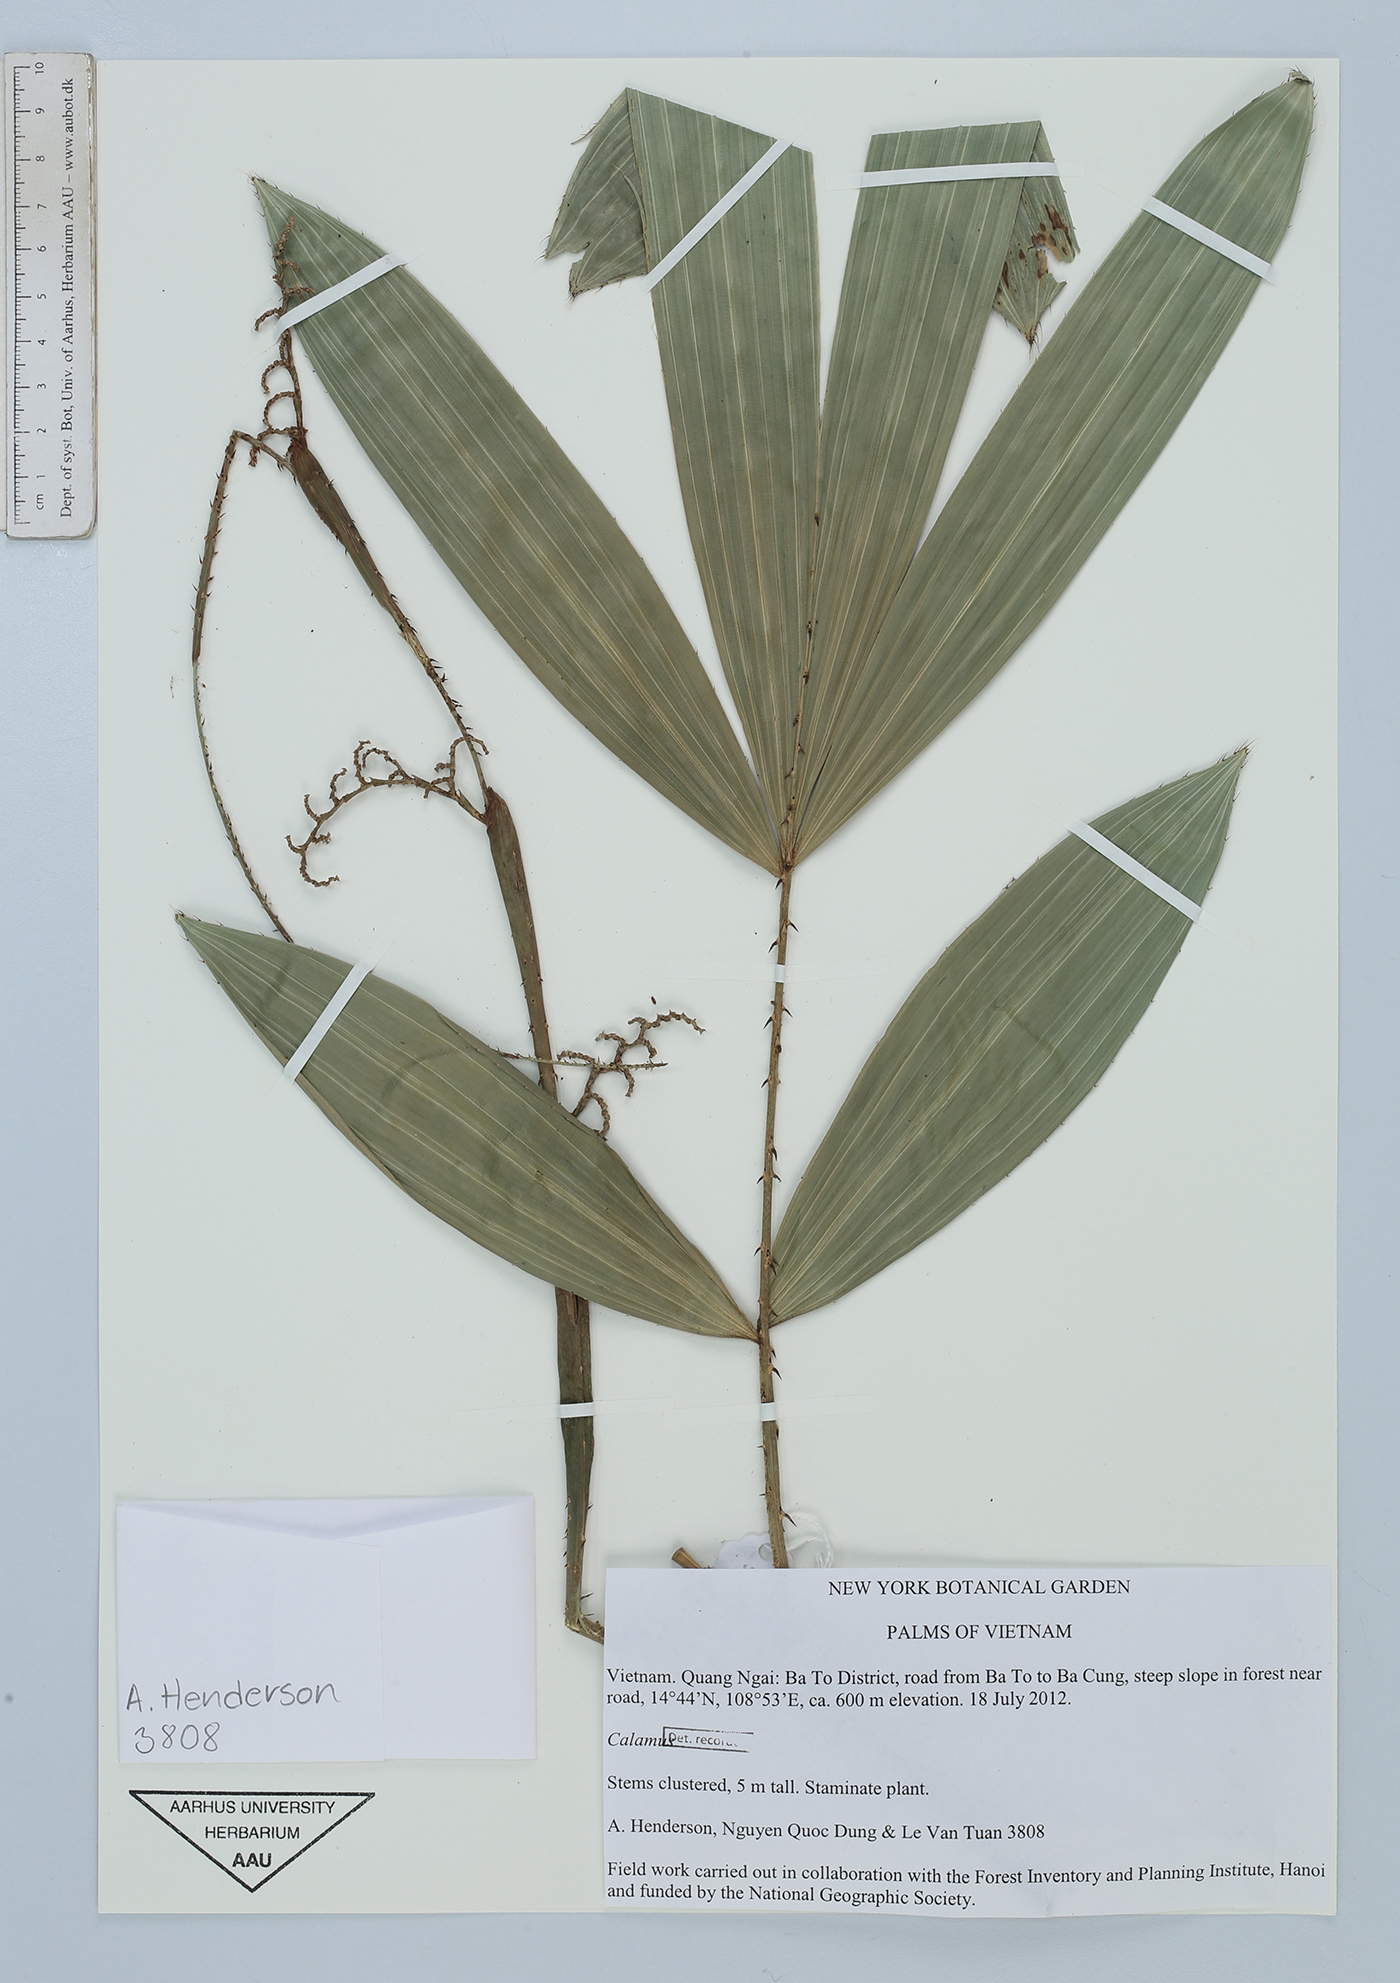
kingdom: Plantae
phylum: Tracheophyta
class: Liliopsida
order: Arecales
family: Arecaceae
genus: Calamus
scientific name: Calamus
